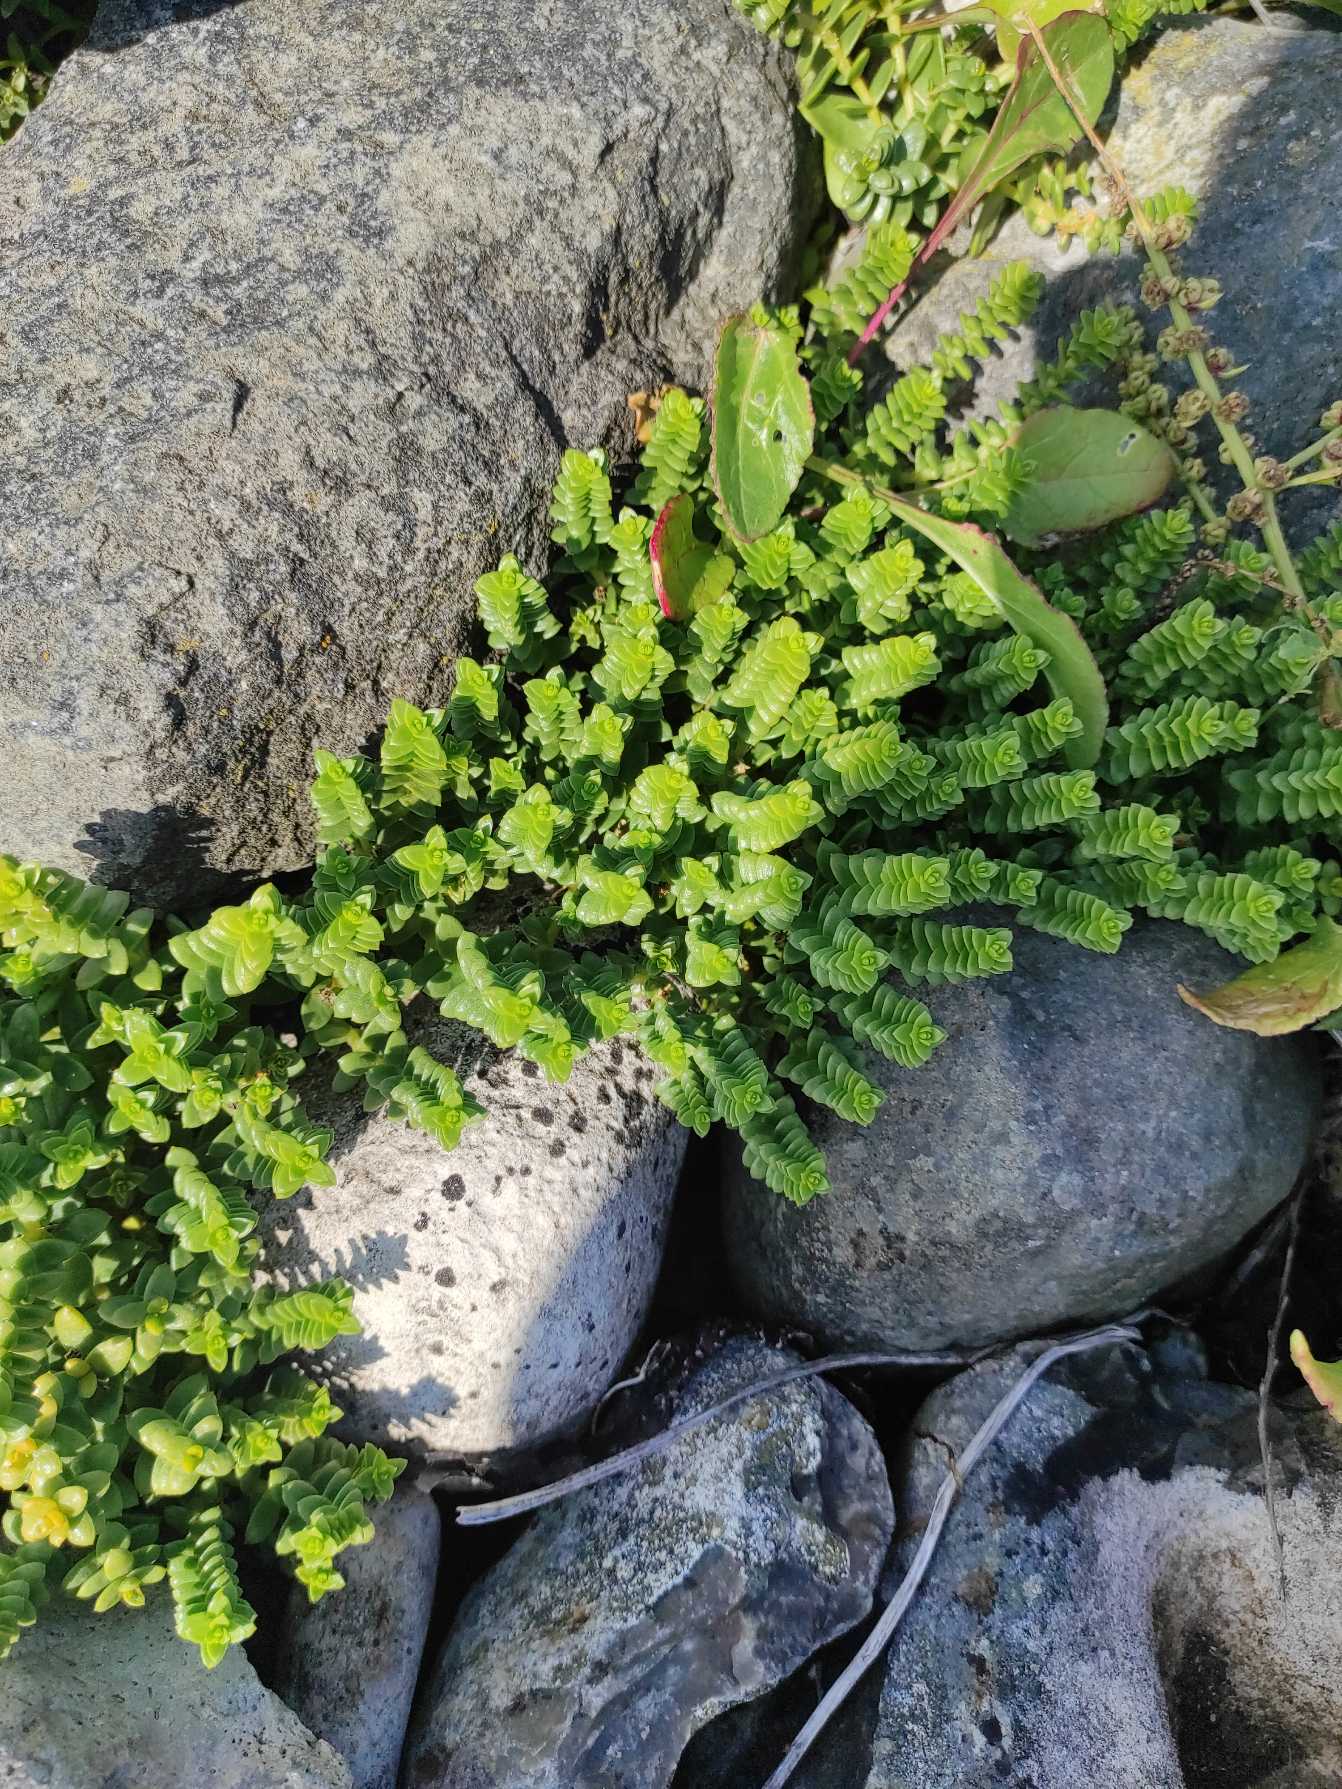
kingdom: Plantae
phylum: Tracheophyta
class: Magnoliopsida
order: Caryophyllales
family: Caryophyllaceae
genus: Honckenya
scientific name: Honckenya peploides
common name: Strandarve
